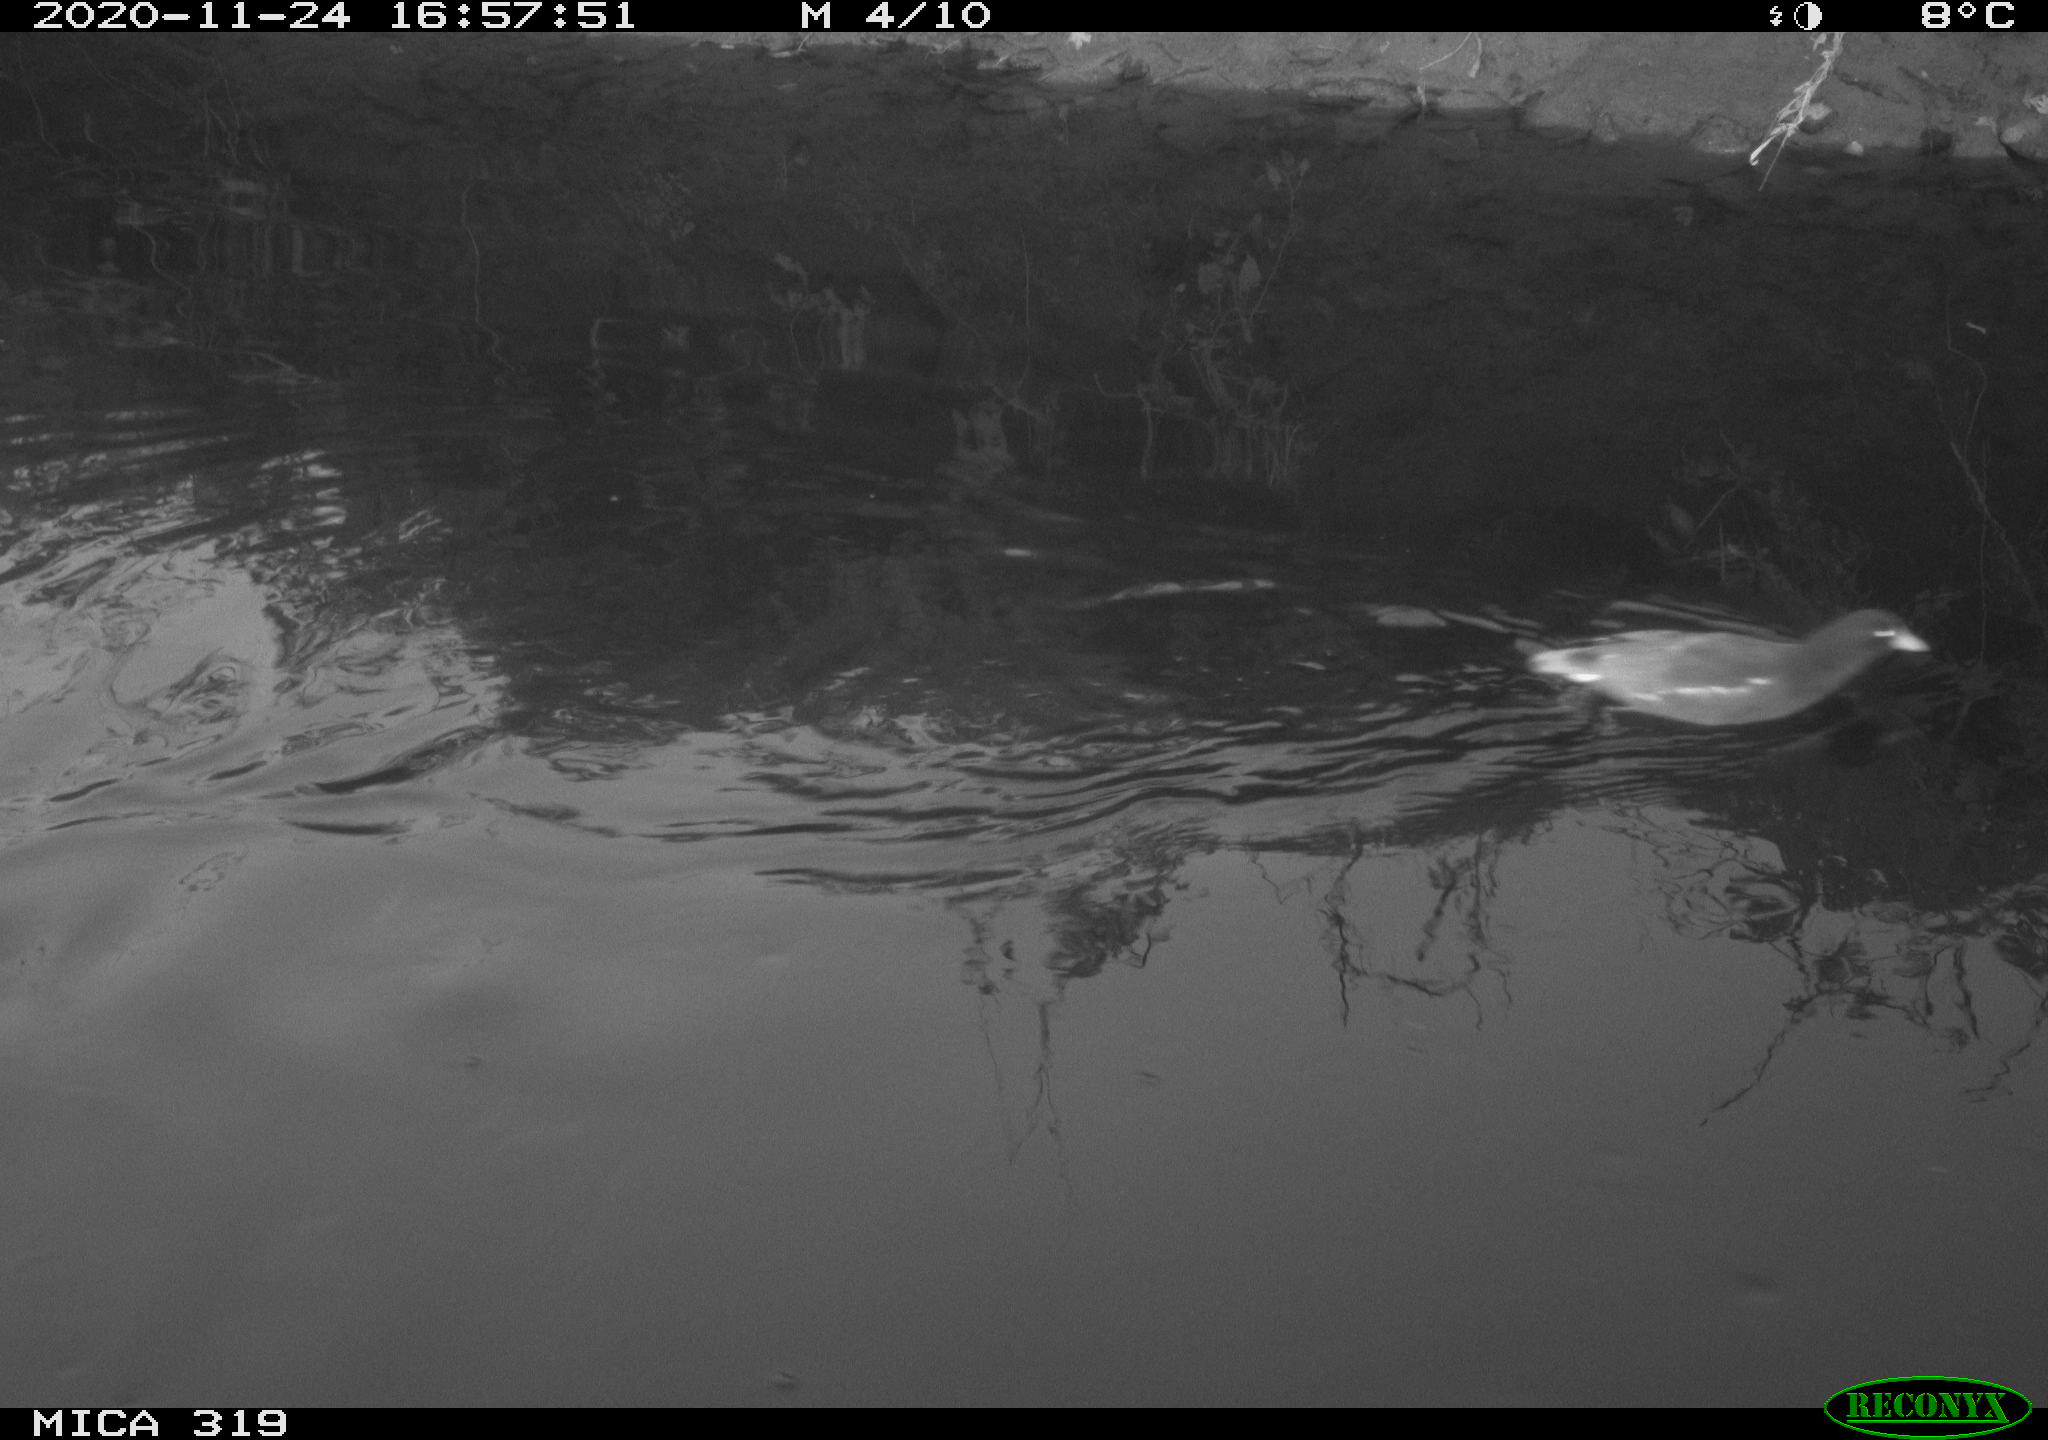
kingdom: Animalia
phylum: Chordata
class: Aves
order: Gruiformes
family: Rallidae
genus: Gallinula
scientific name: Gallinula chloropus
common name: Common moorhen
